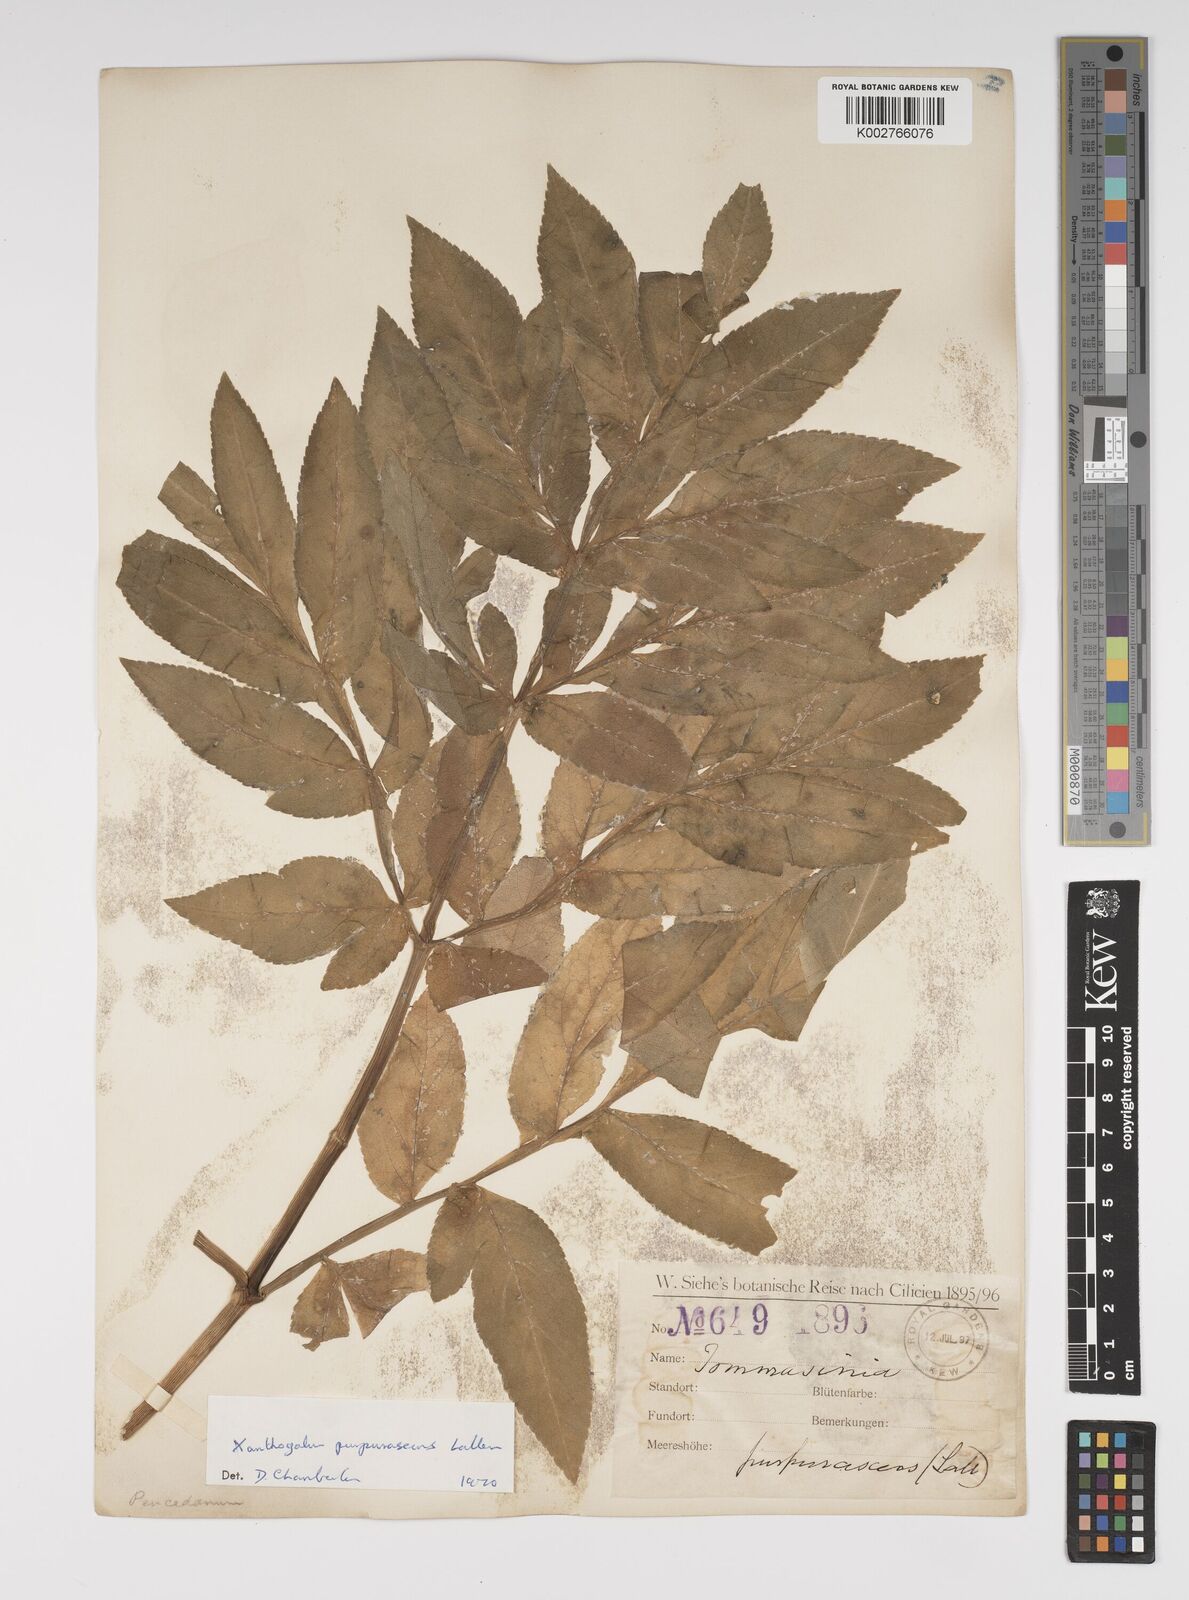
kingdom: Plantae
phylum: Tracheophyta
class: Magnoliopsida
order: Apiales
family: Apiaceae
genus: Xanthogalum
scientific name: Xanthogalum purpurascens
